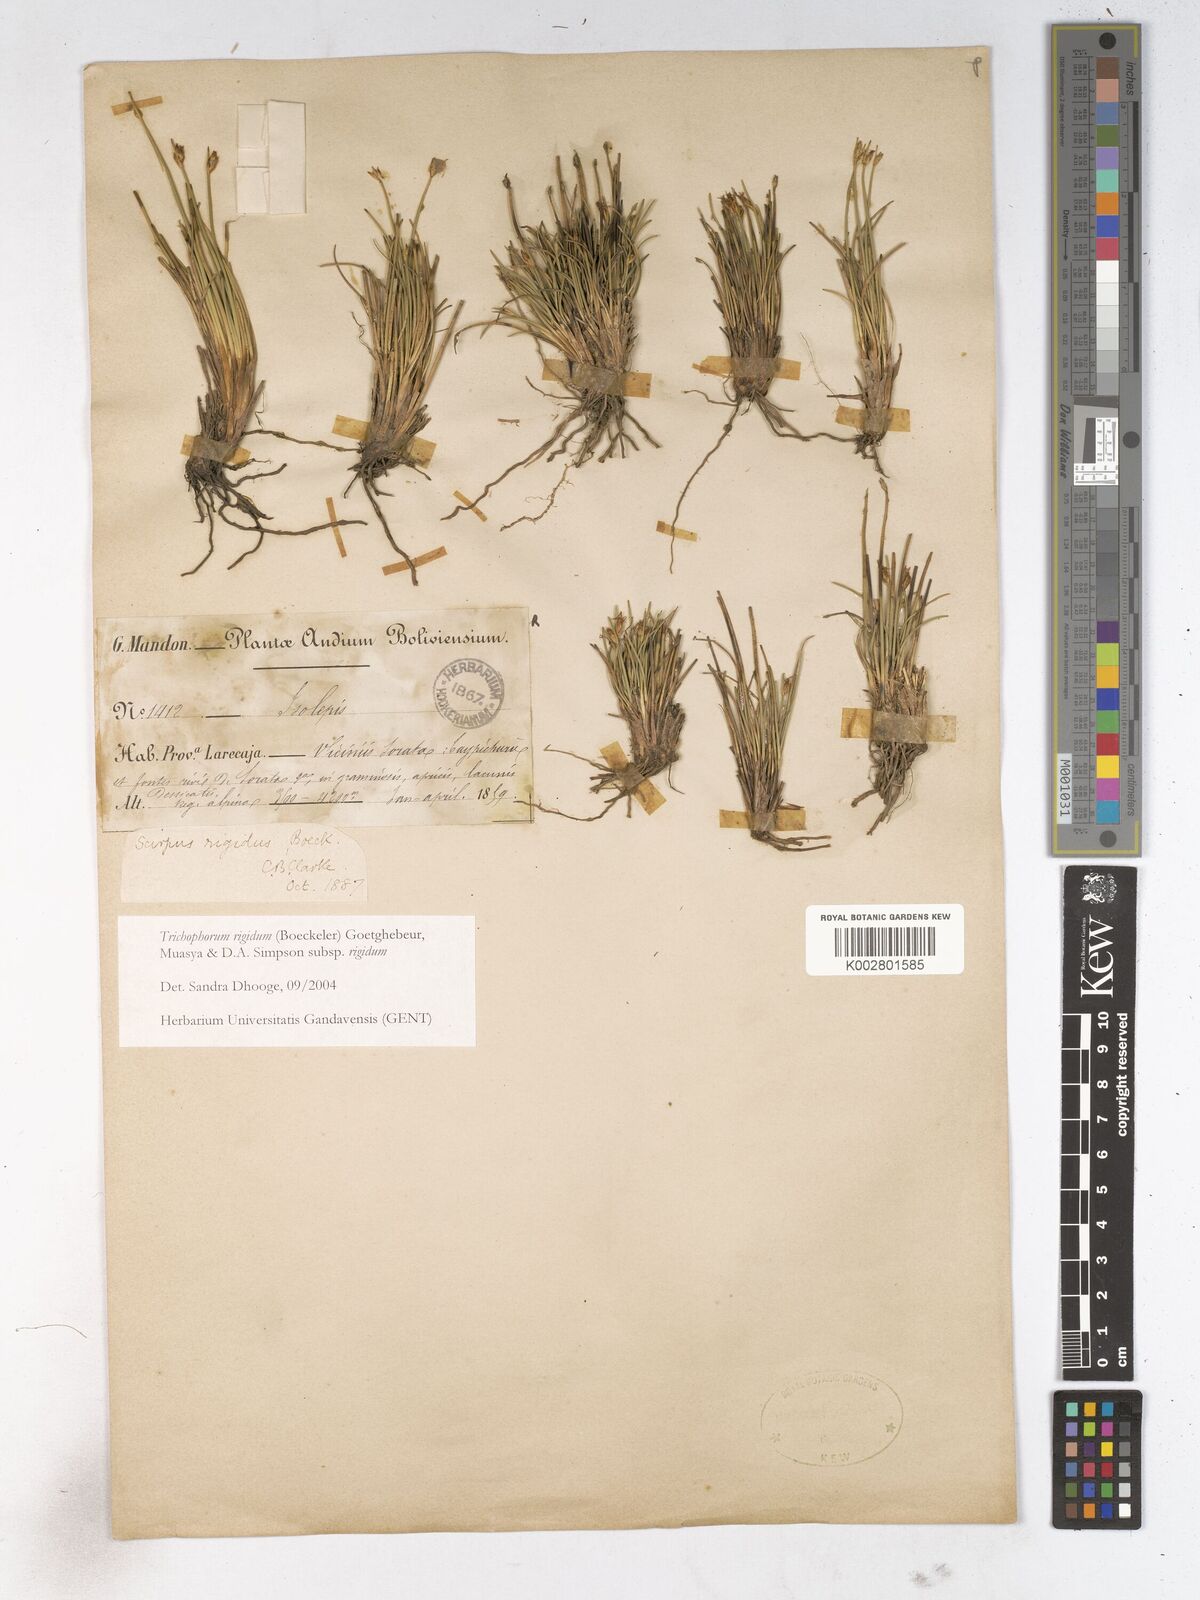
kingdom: Plantae
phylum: Tracheophyta
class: Liliopsida
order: Poales
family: Cyperaceae
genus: Trichophorum
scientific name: Trichophorum rigidum
